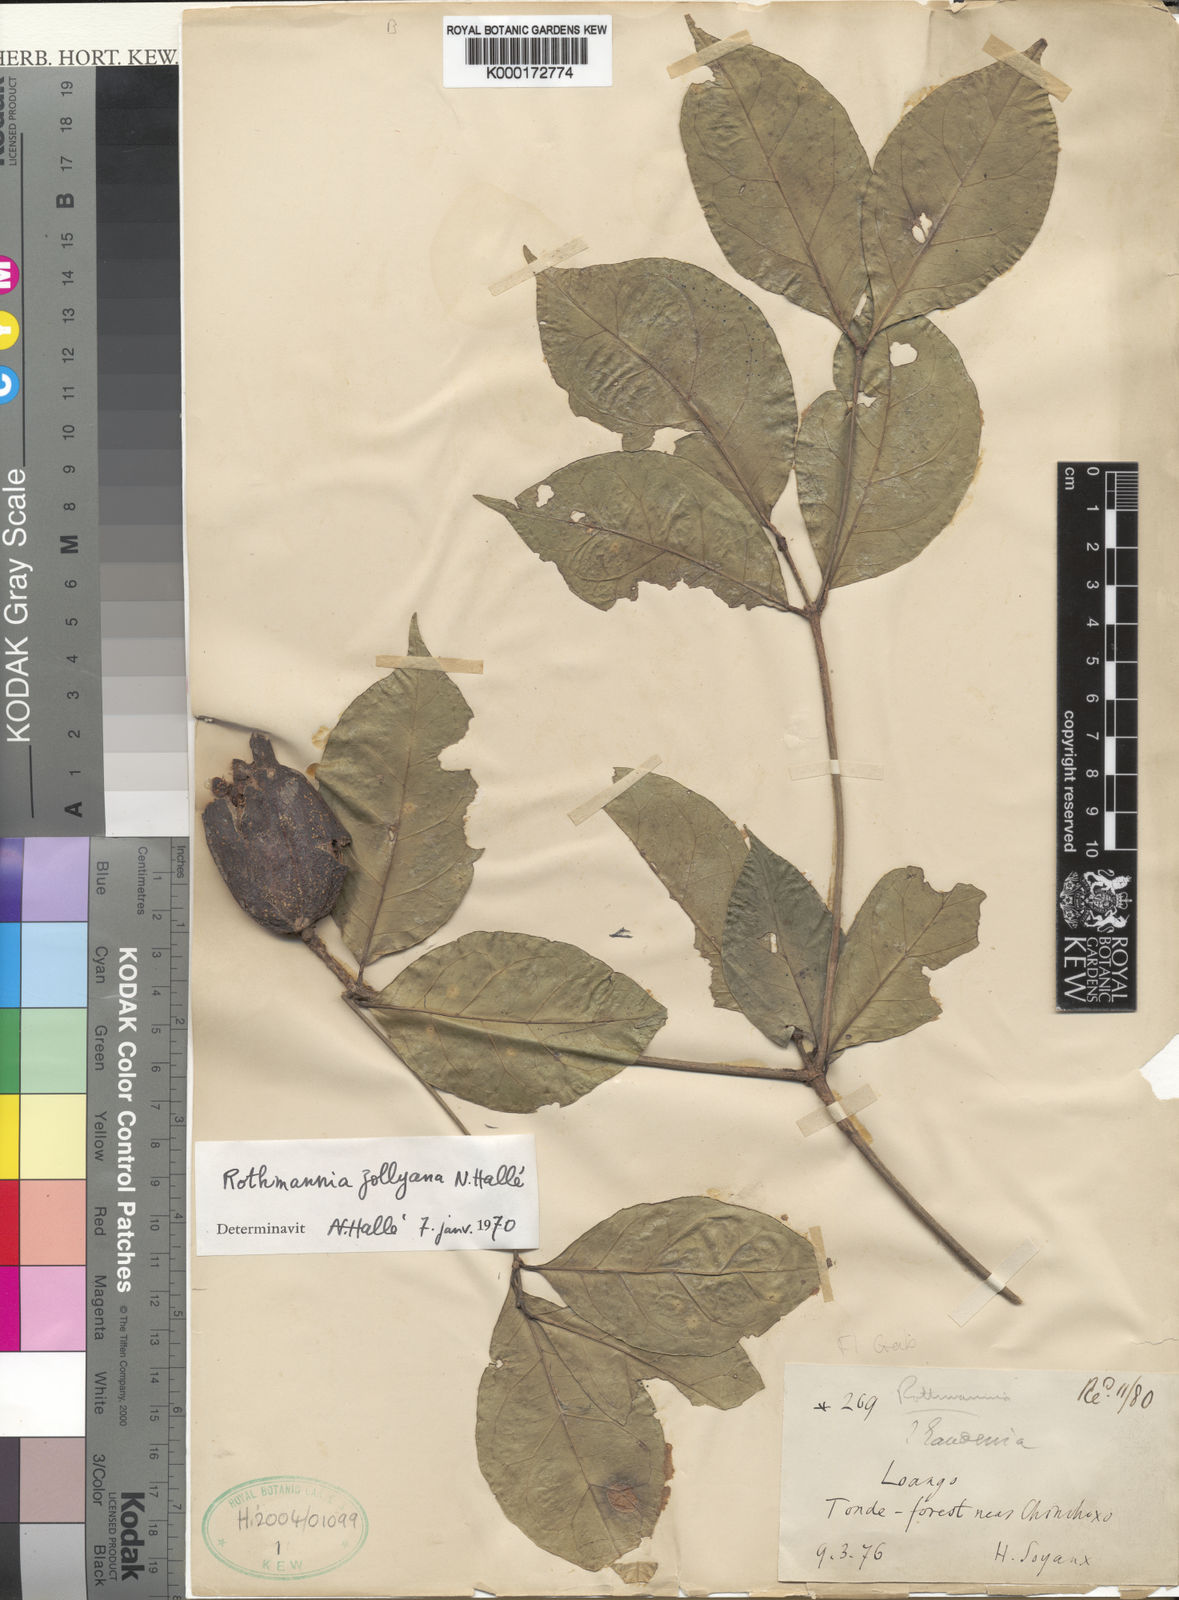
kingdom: Plantae
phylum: Tracheophyta
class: Magnoliopsida
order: Gentianales
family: Rubiaceae
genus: Rothmannia
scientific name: Rothmannia jollyana
